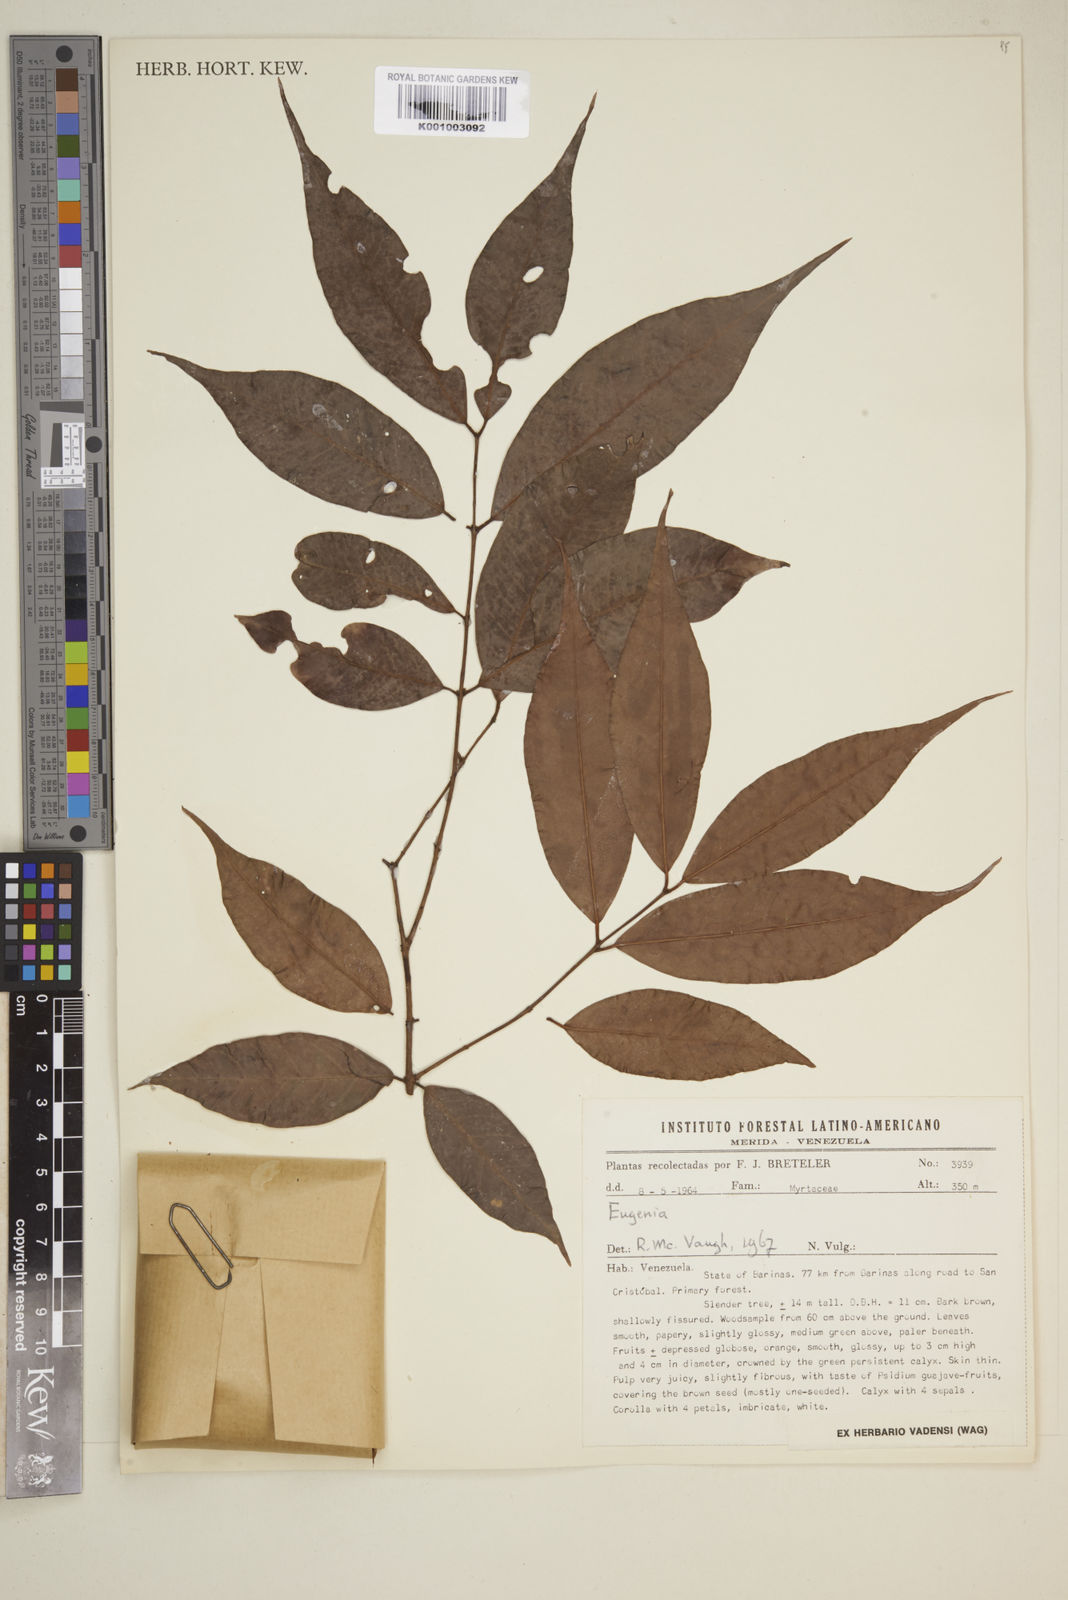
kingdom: Plantae
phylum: Tracheophyta
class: Magnoliopsida
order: Myrtales
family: Myrtaceae
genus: Eugenia
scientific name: Eugenia
